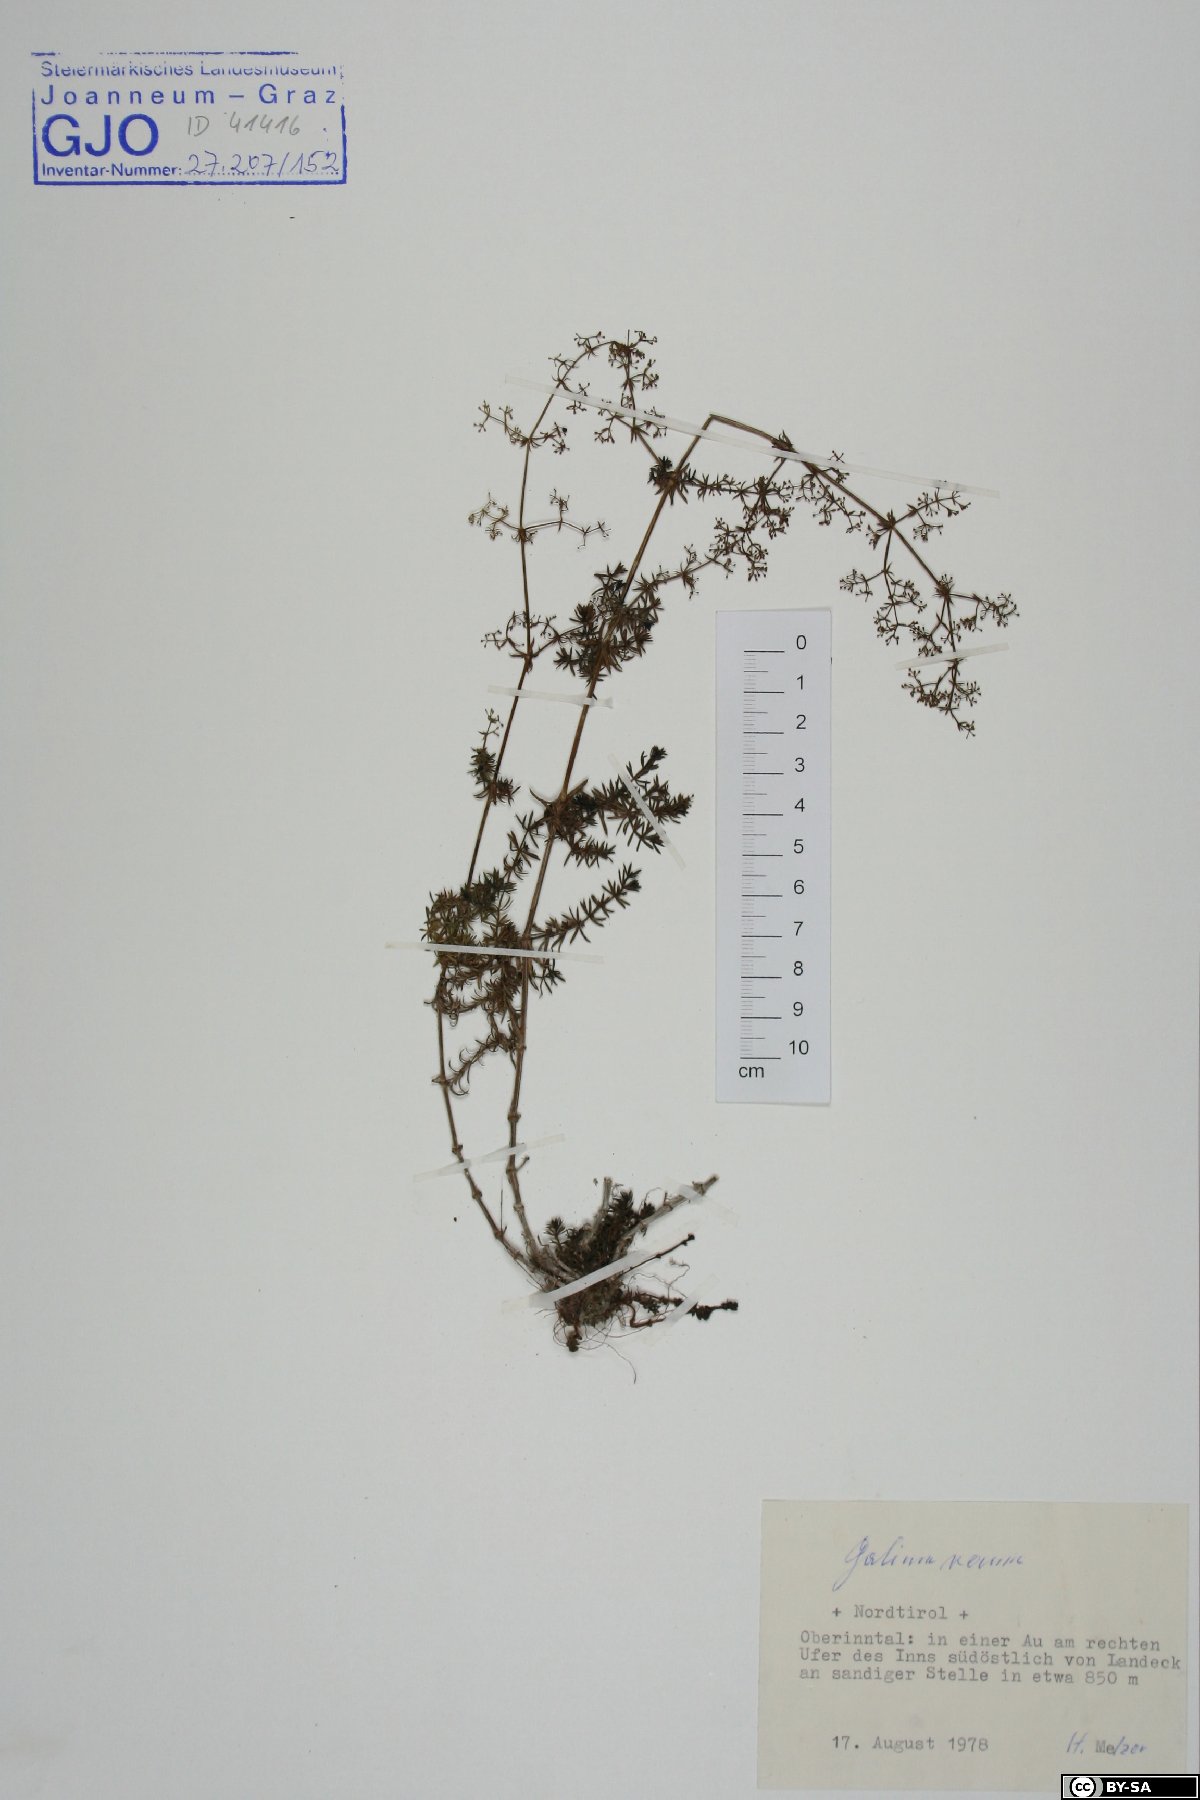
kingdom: Plantae
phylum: Tracheophyta
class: Magnoliopsida
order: Gentianales
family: Rubiaceae
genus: Galium
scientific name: Galium verum
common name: Lady's bedstraw
